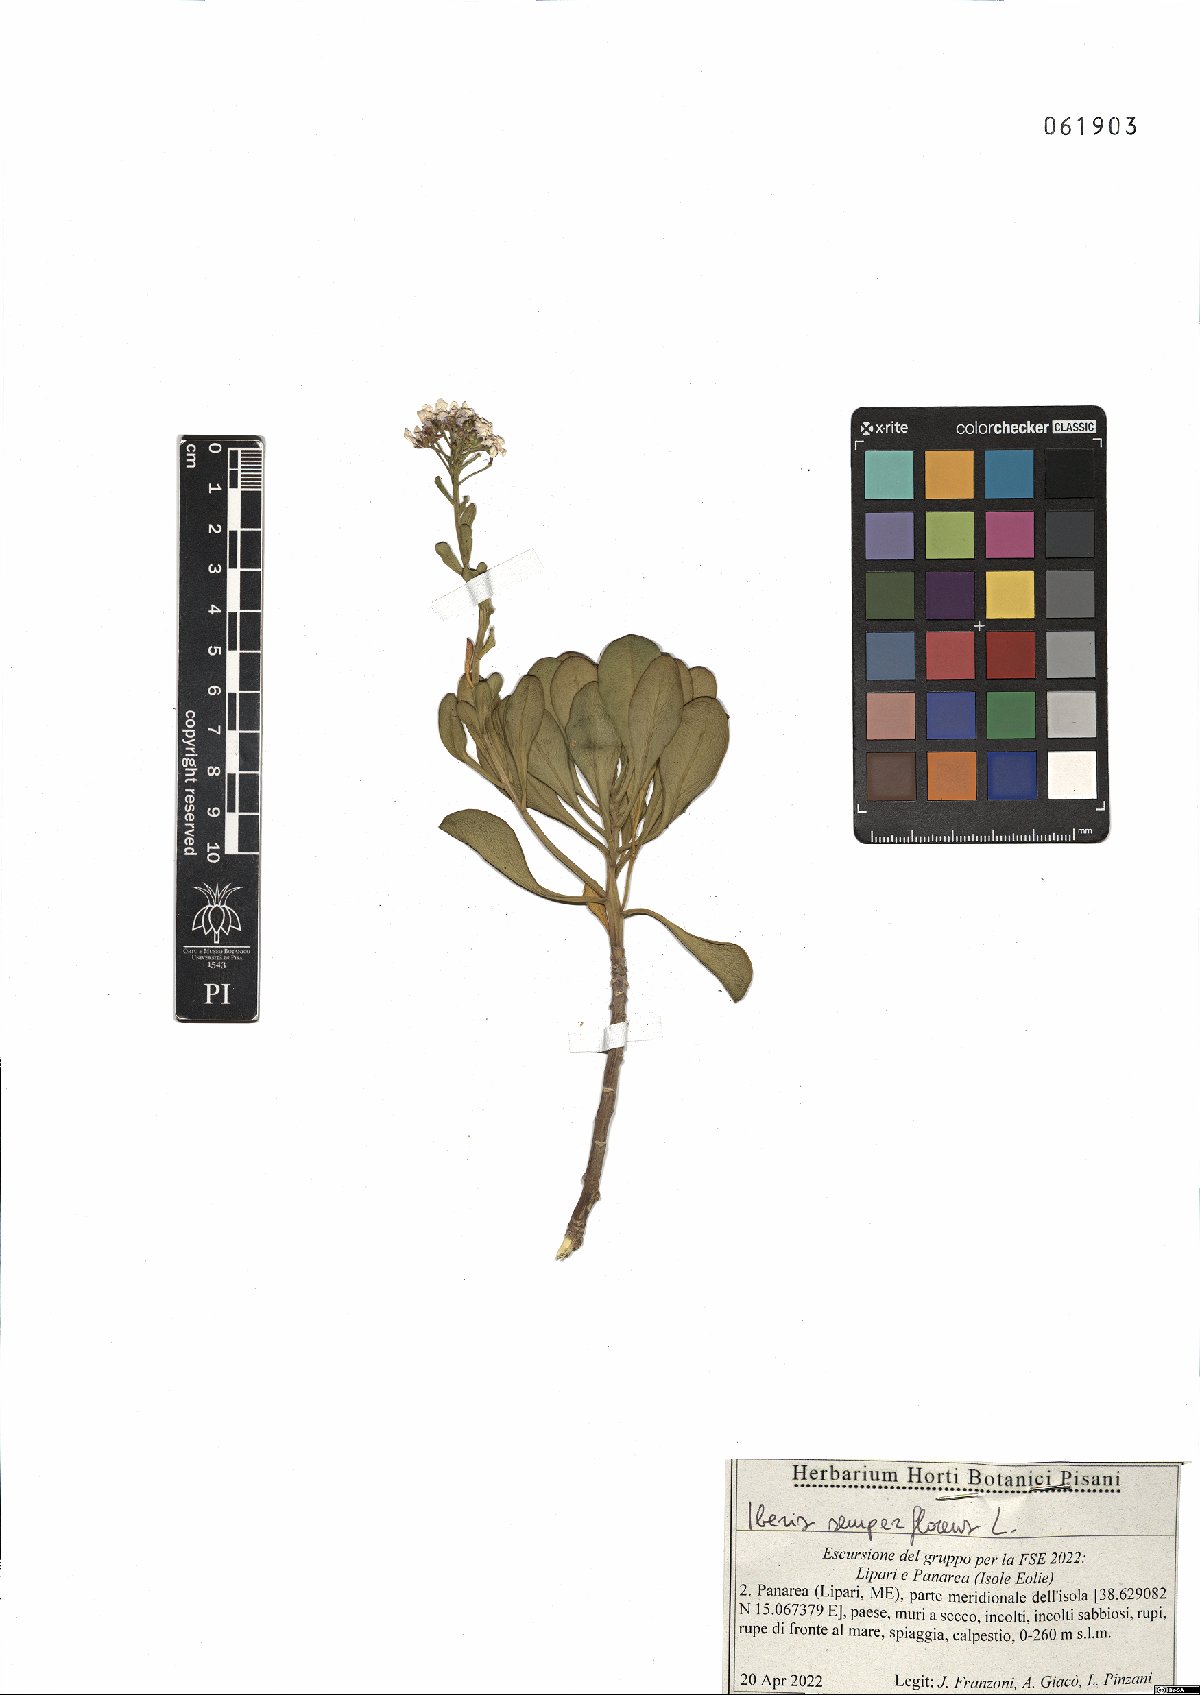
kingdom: Plantae
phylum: Tracheophyta
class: Magnoliopsida
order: Brassicales
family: Brassicaceae
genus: Iberis
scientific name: Iberis semperflorens
